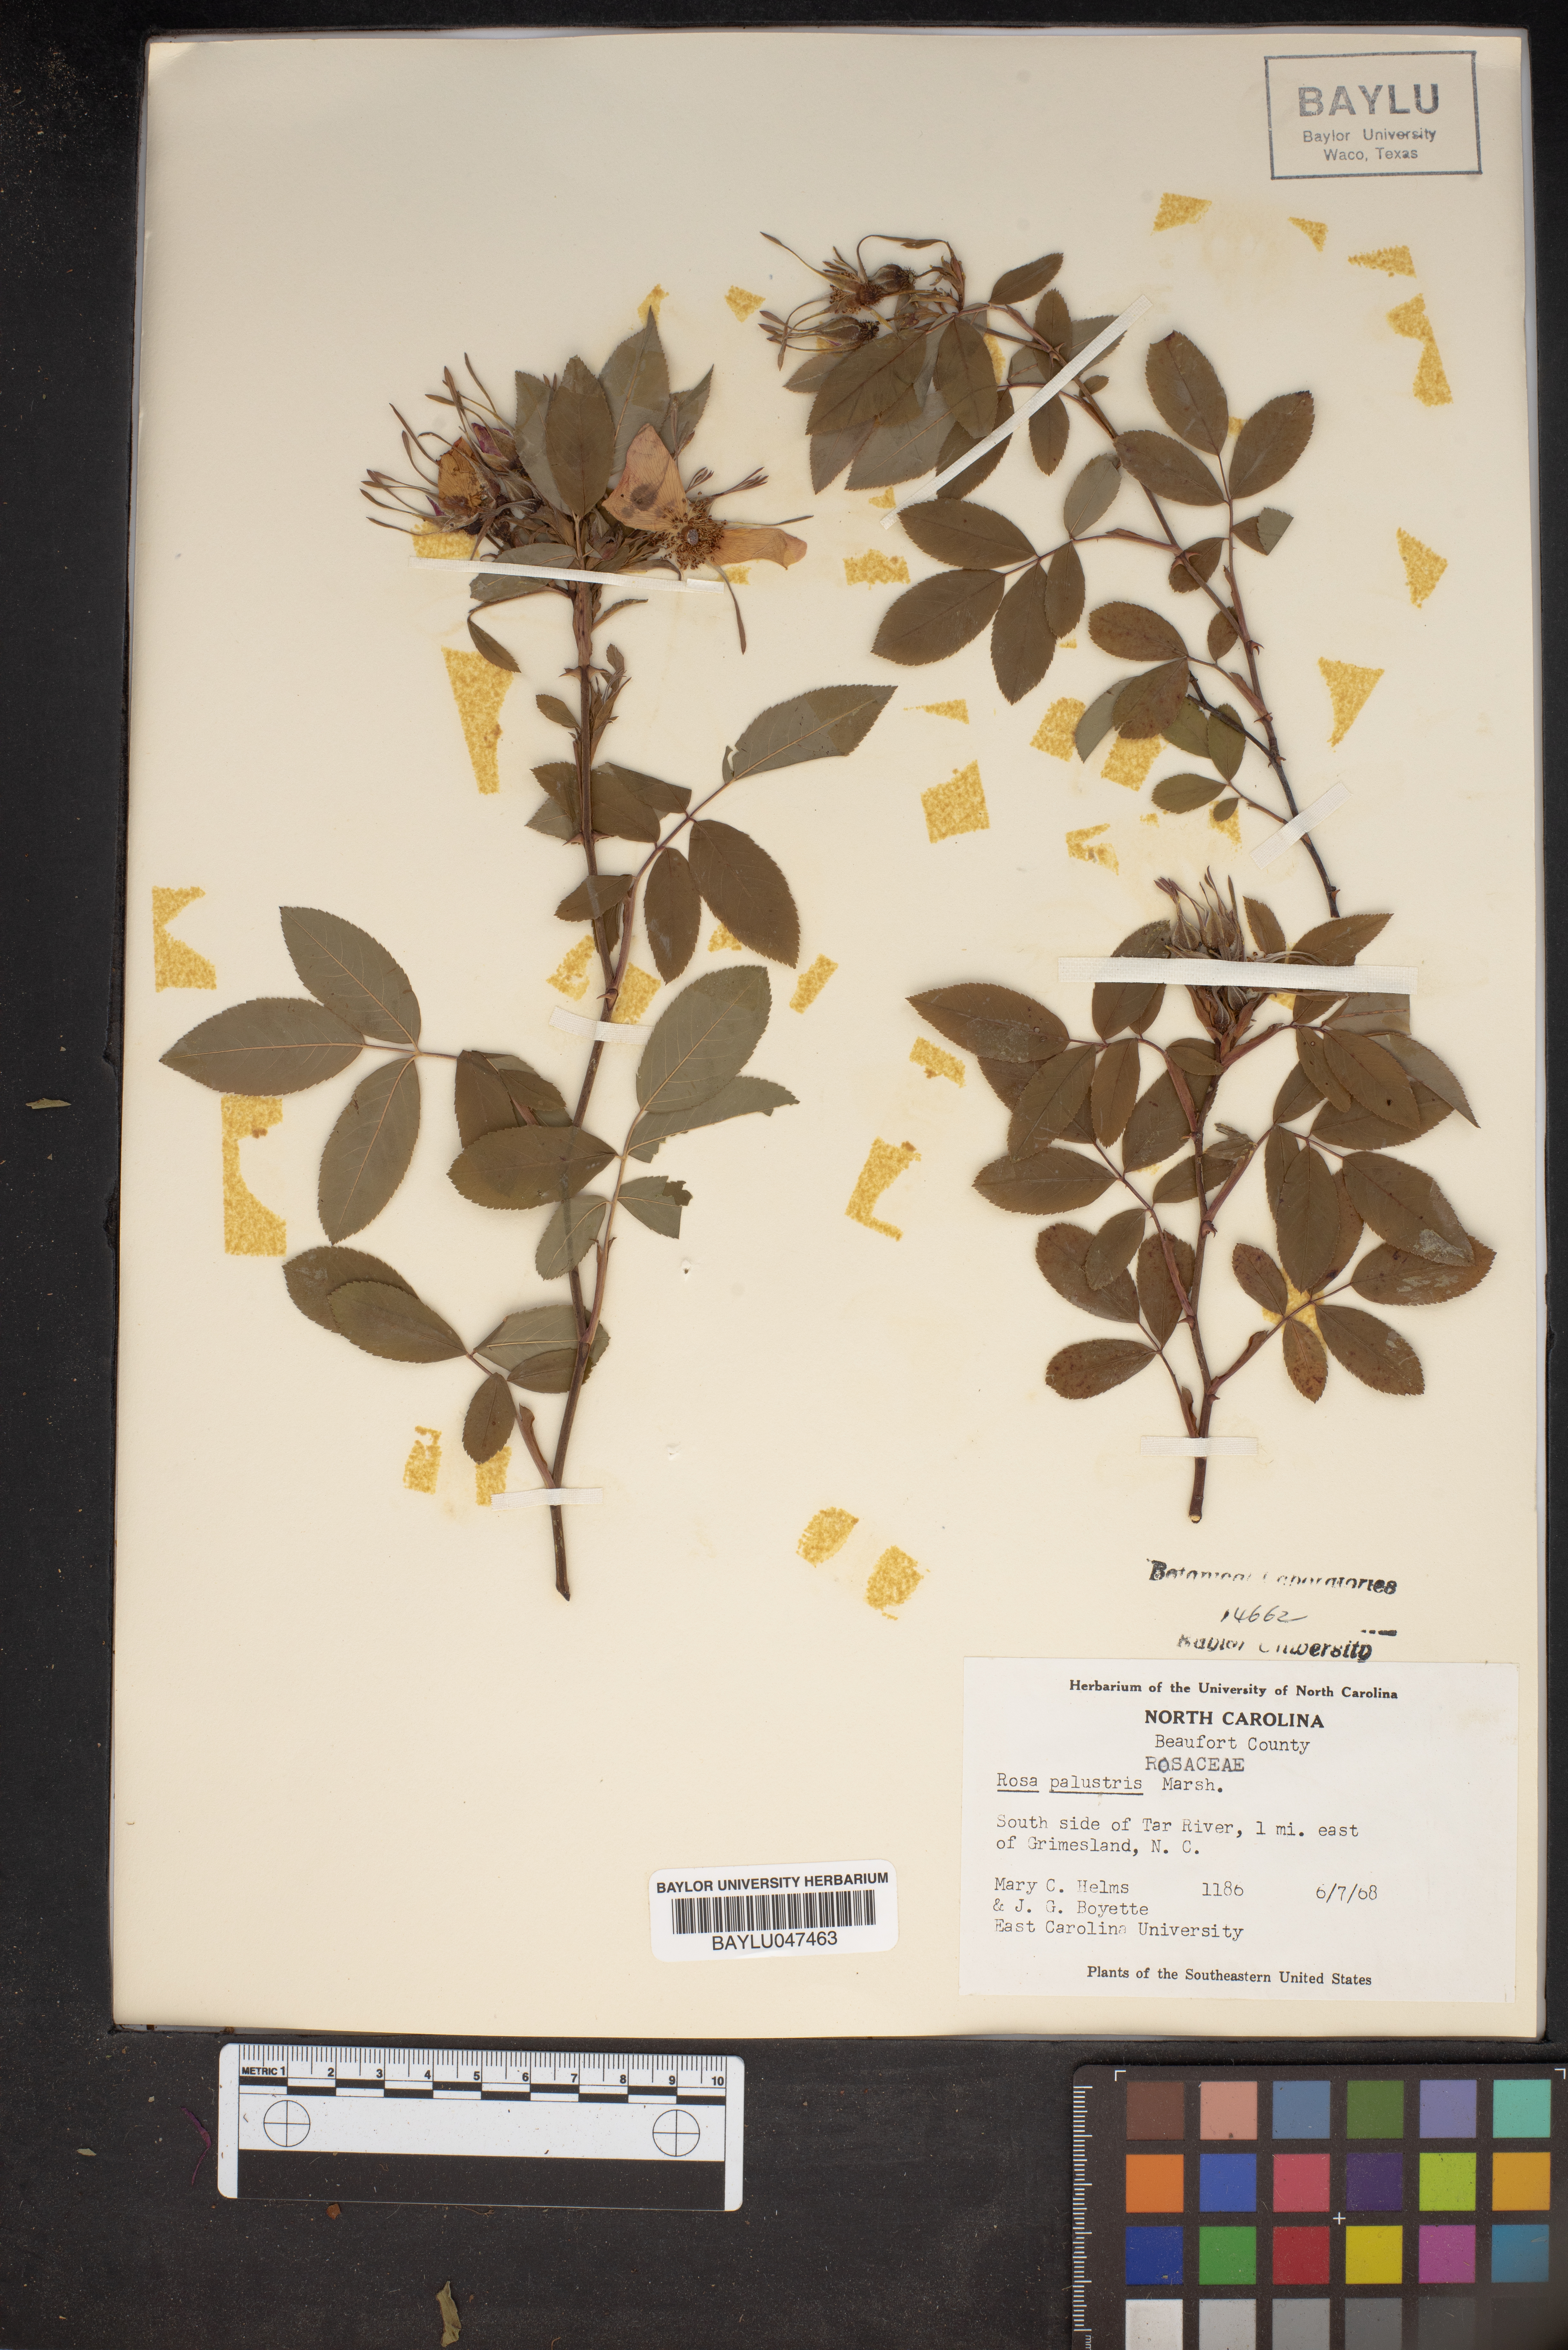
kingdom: Plantae
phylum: Tracheophyta
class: Magnoliopsida
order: Rosales
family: Rosaceae
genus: Rosa
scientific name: Rosa palustris
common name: Swamp rose
